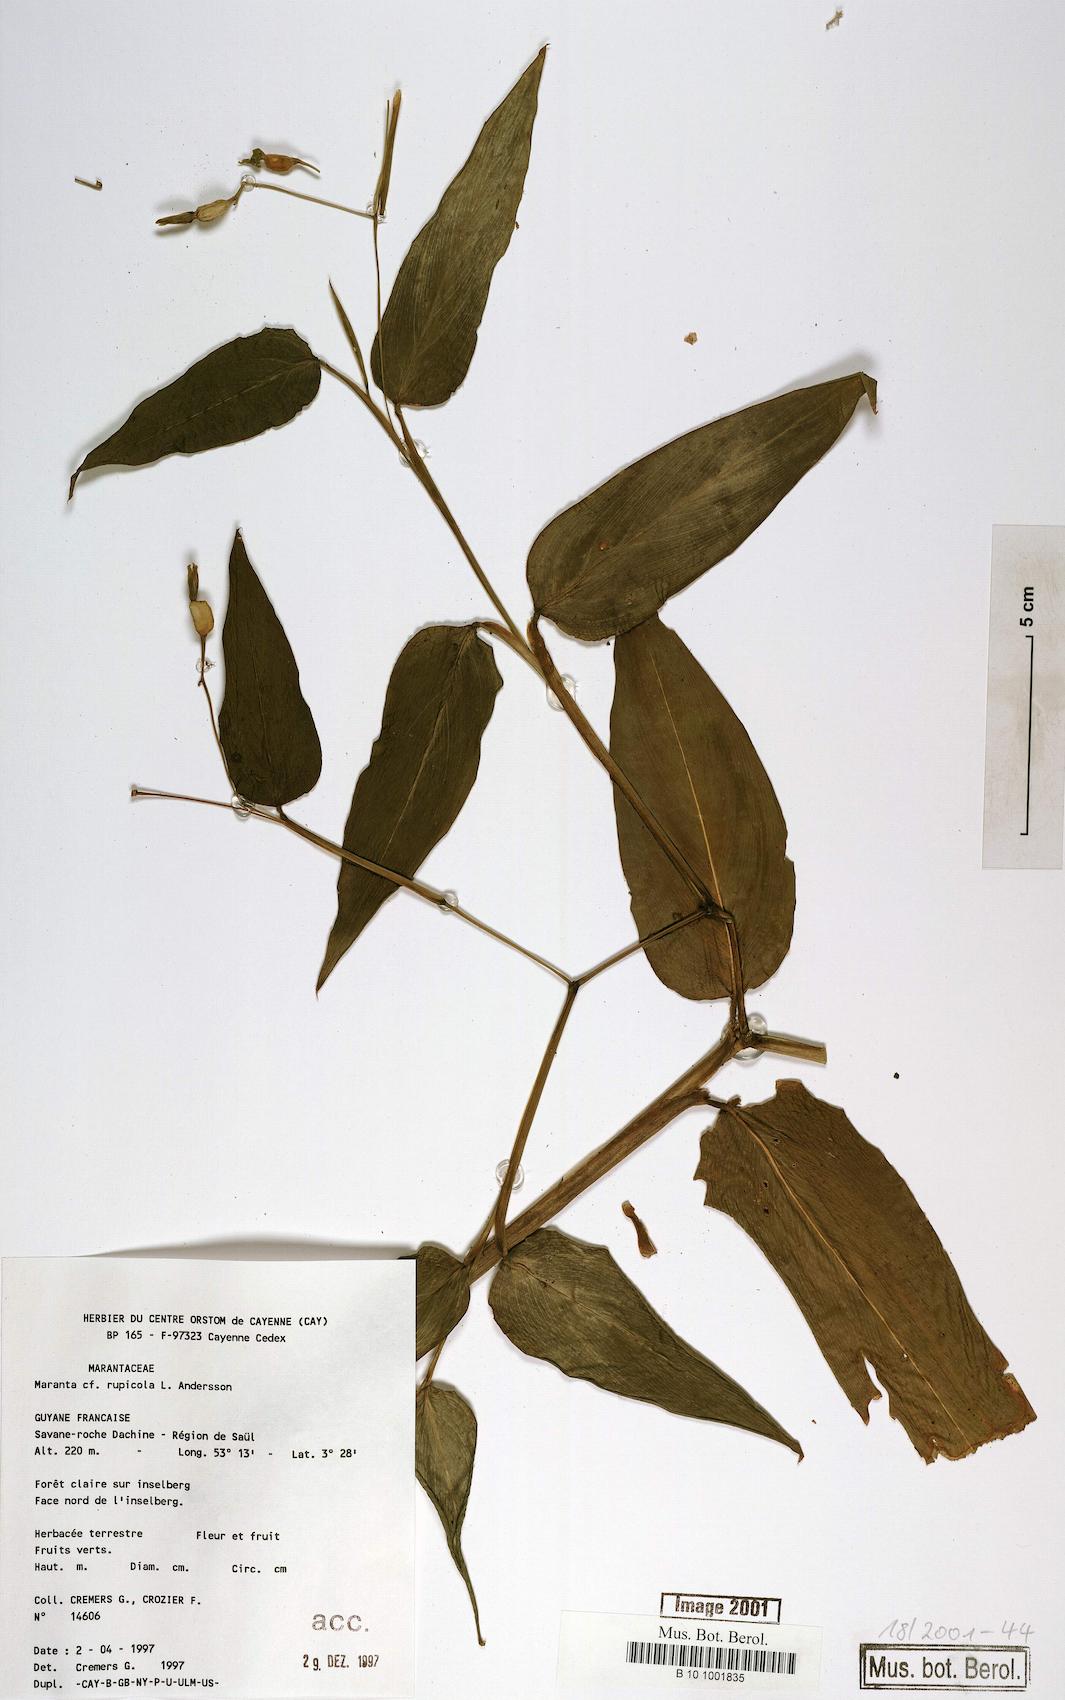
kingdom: Plantae
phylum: Tracheophyta
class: Liliopsida
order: Zingiberales
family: Marantaceae
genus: Maranta
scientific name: Maranta rupicola
